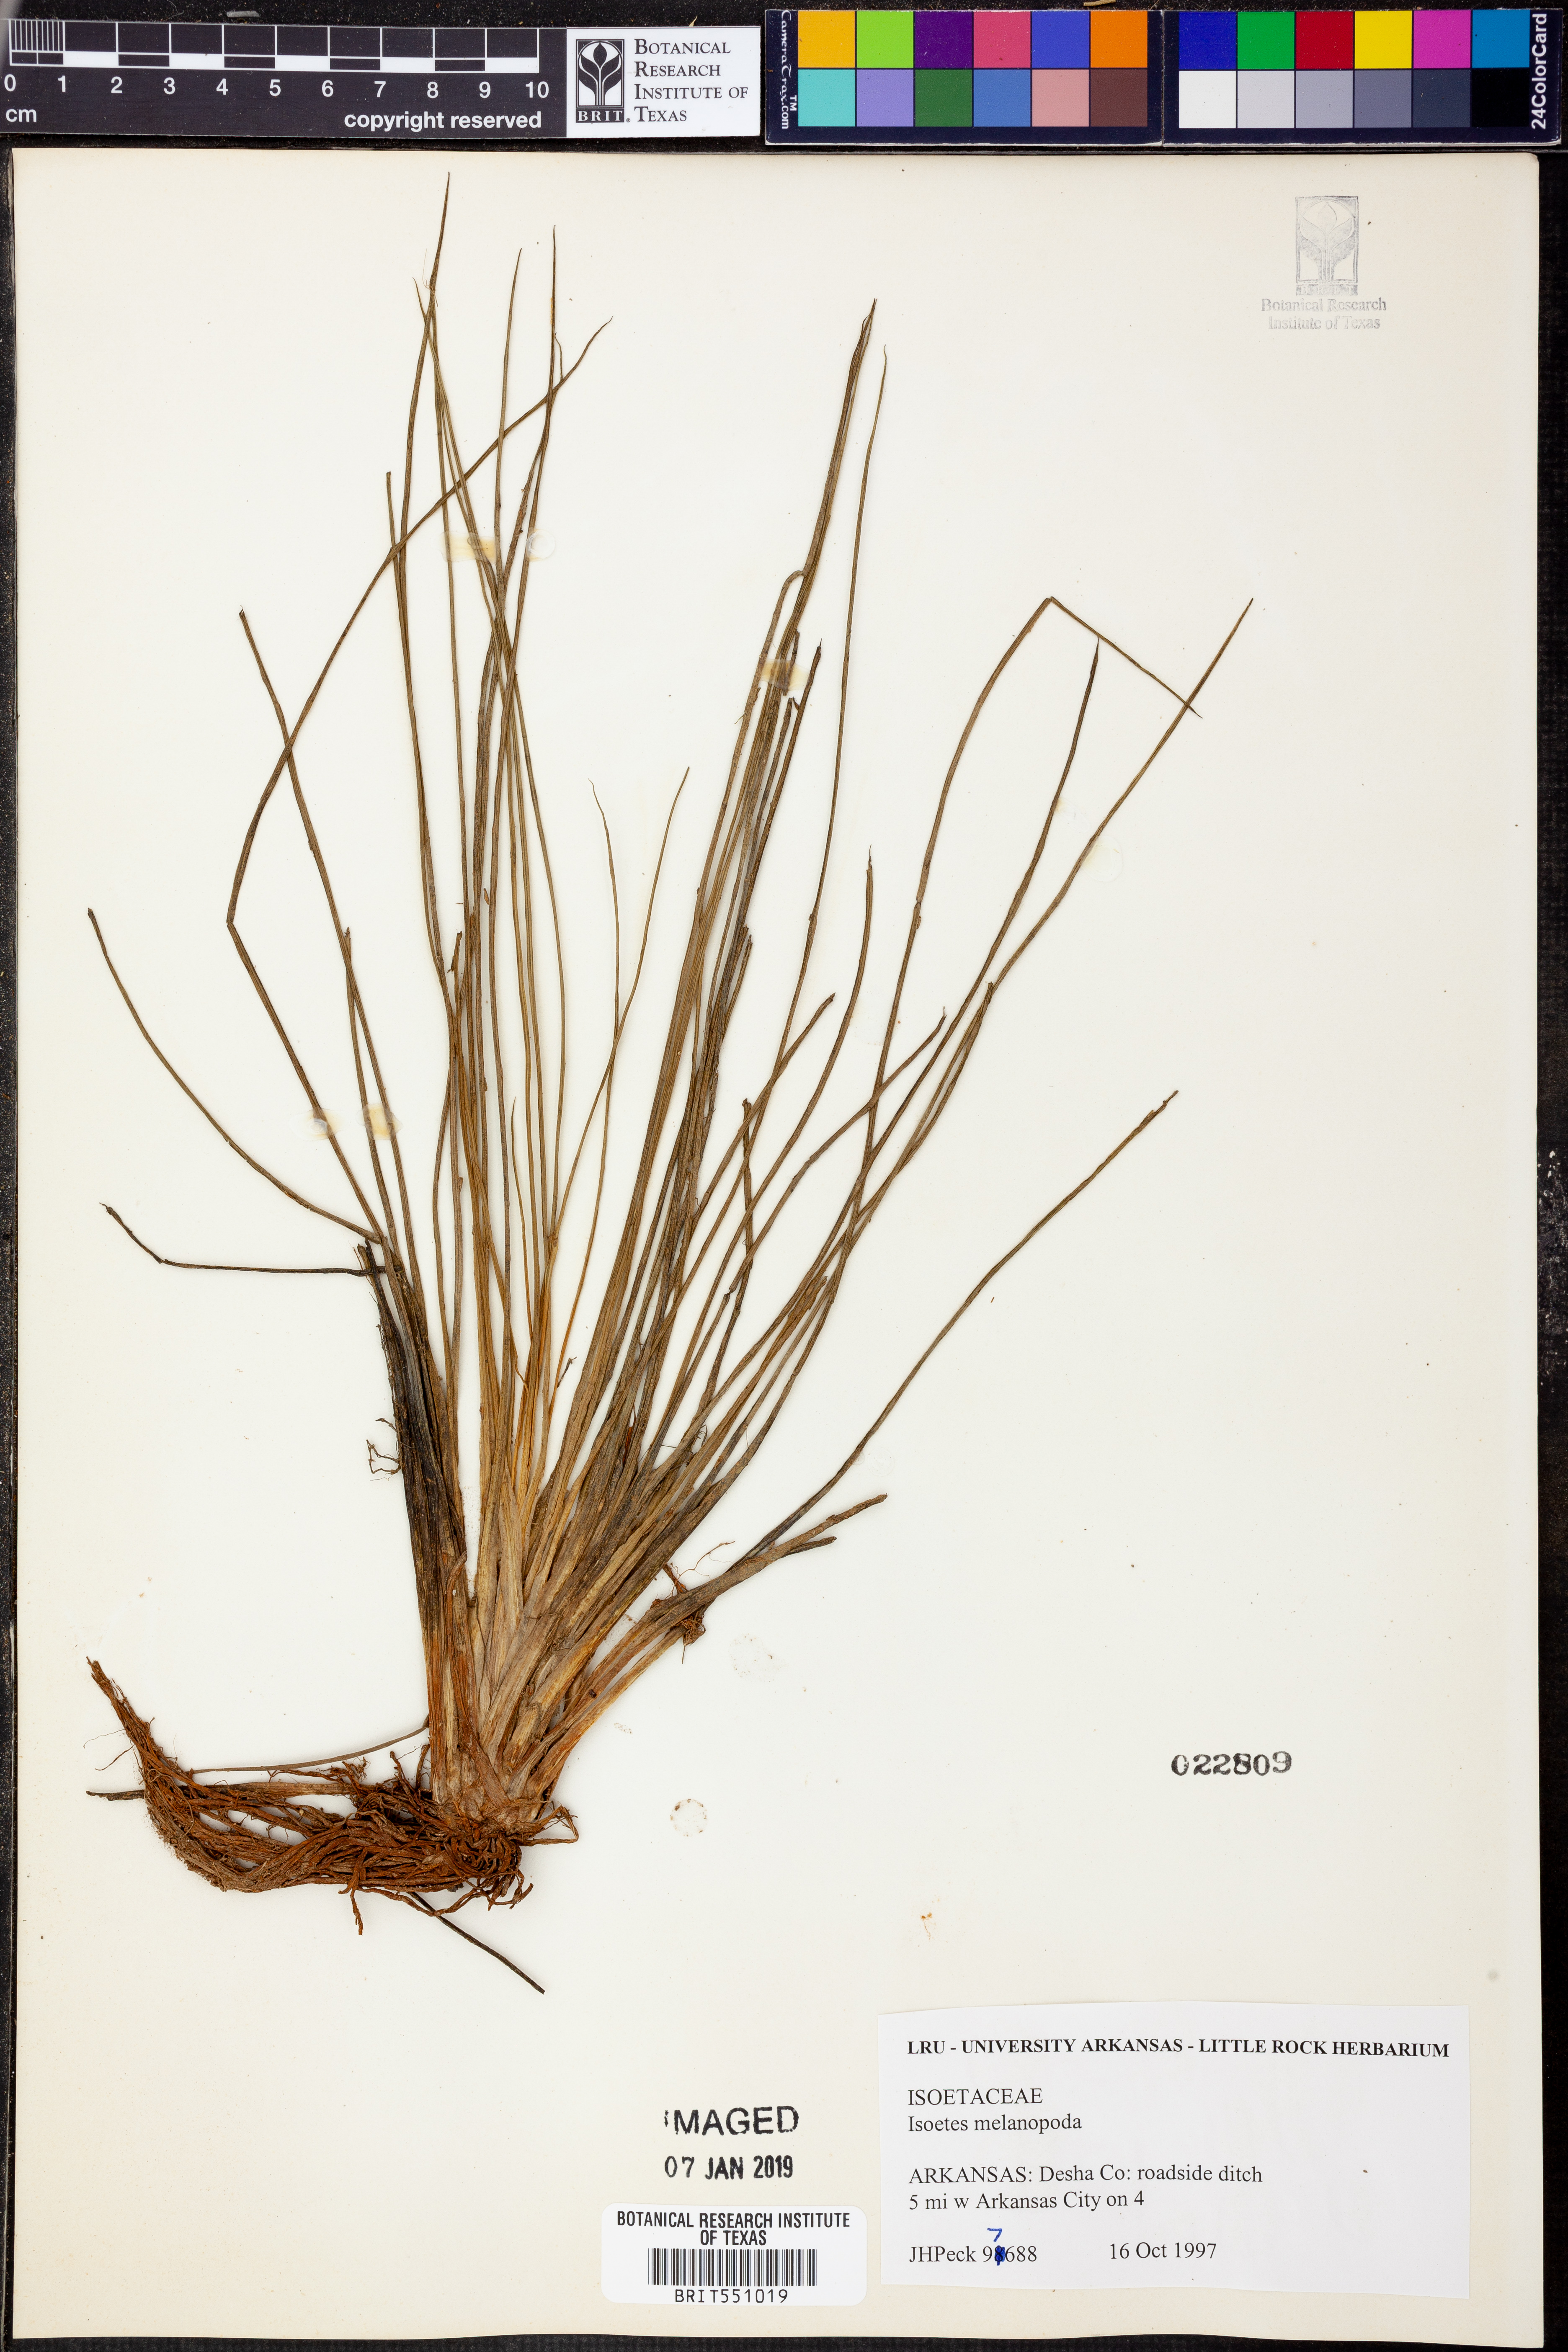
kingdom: Plantae
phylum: Tracheophyta
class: Lycopodiopsida
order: Isoetales
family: Isoetaceae
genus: Isoetes
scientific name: Isoetes melanopoda
